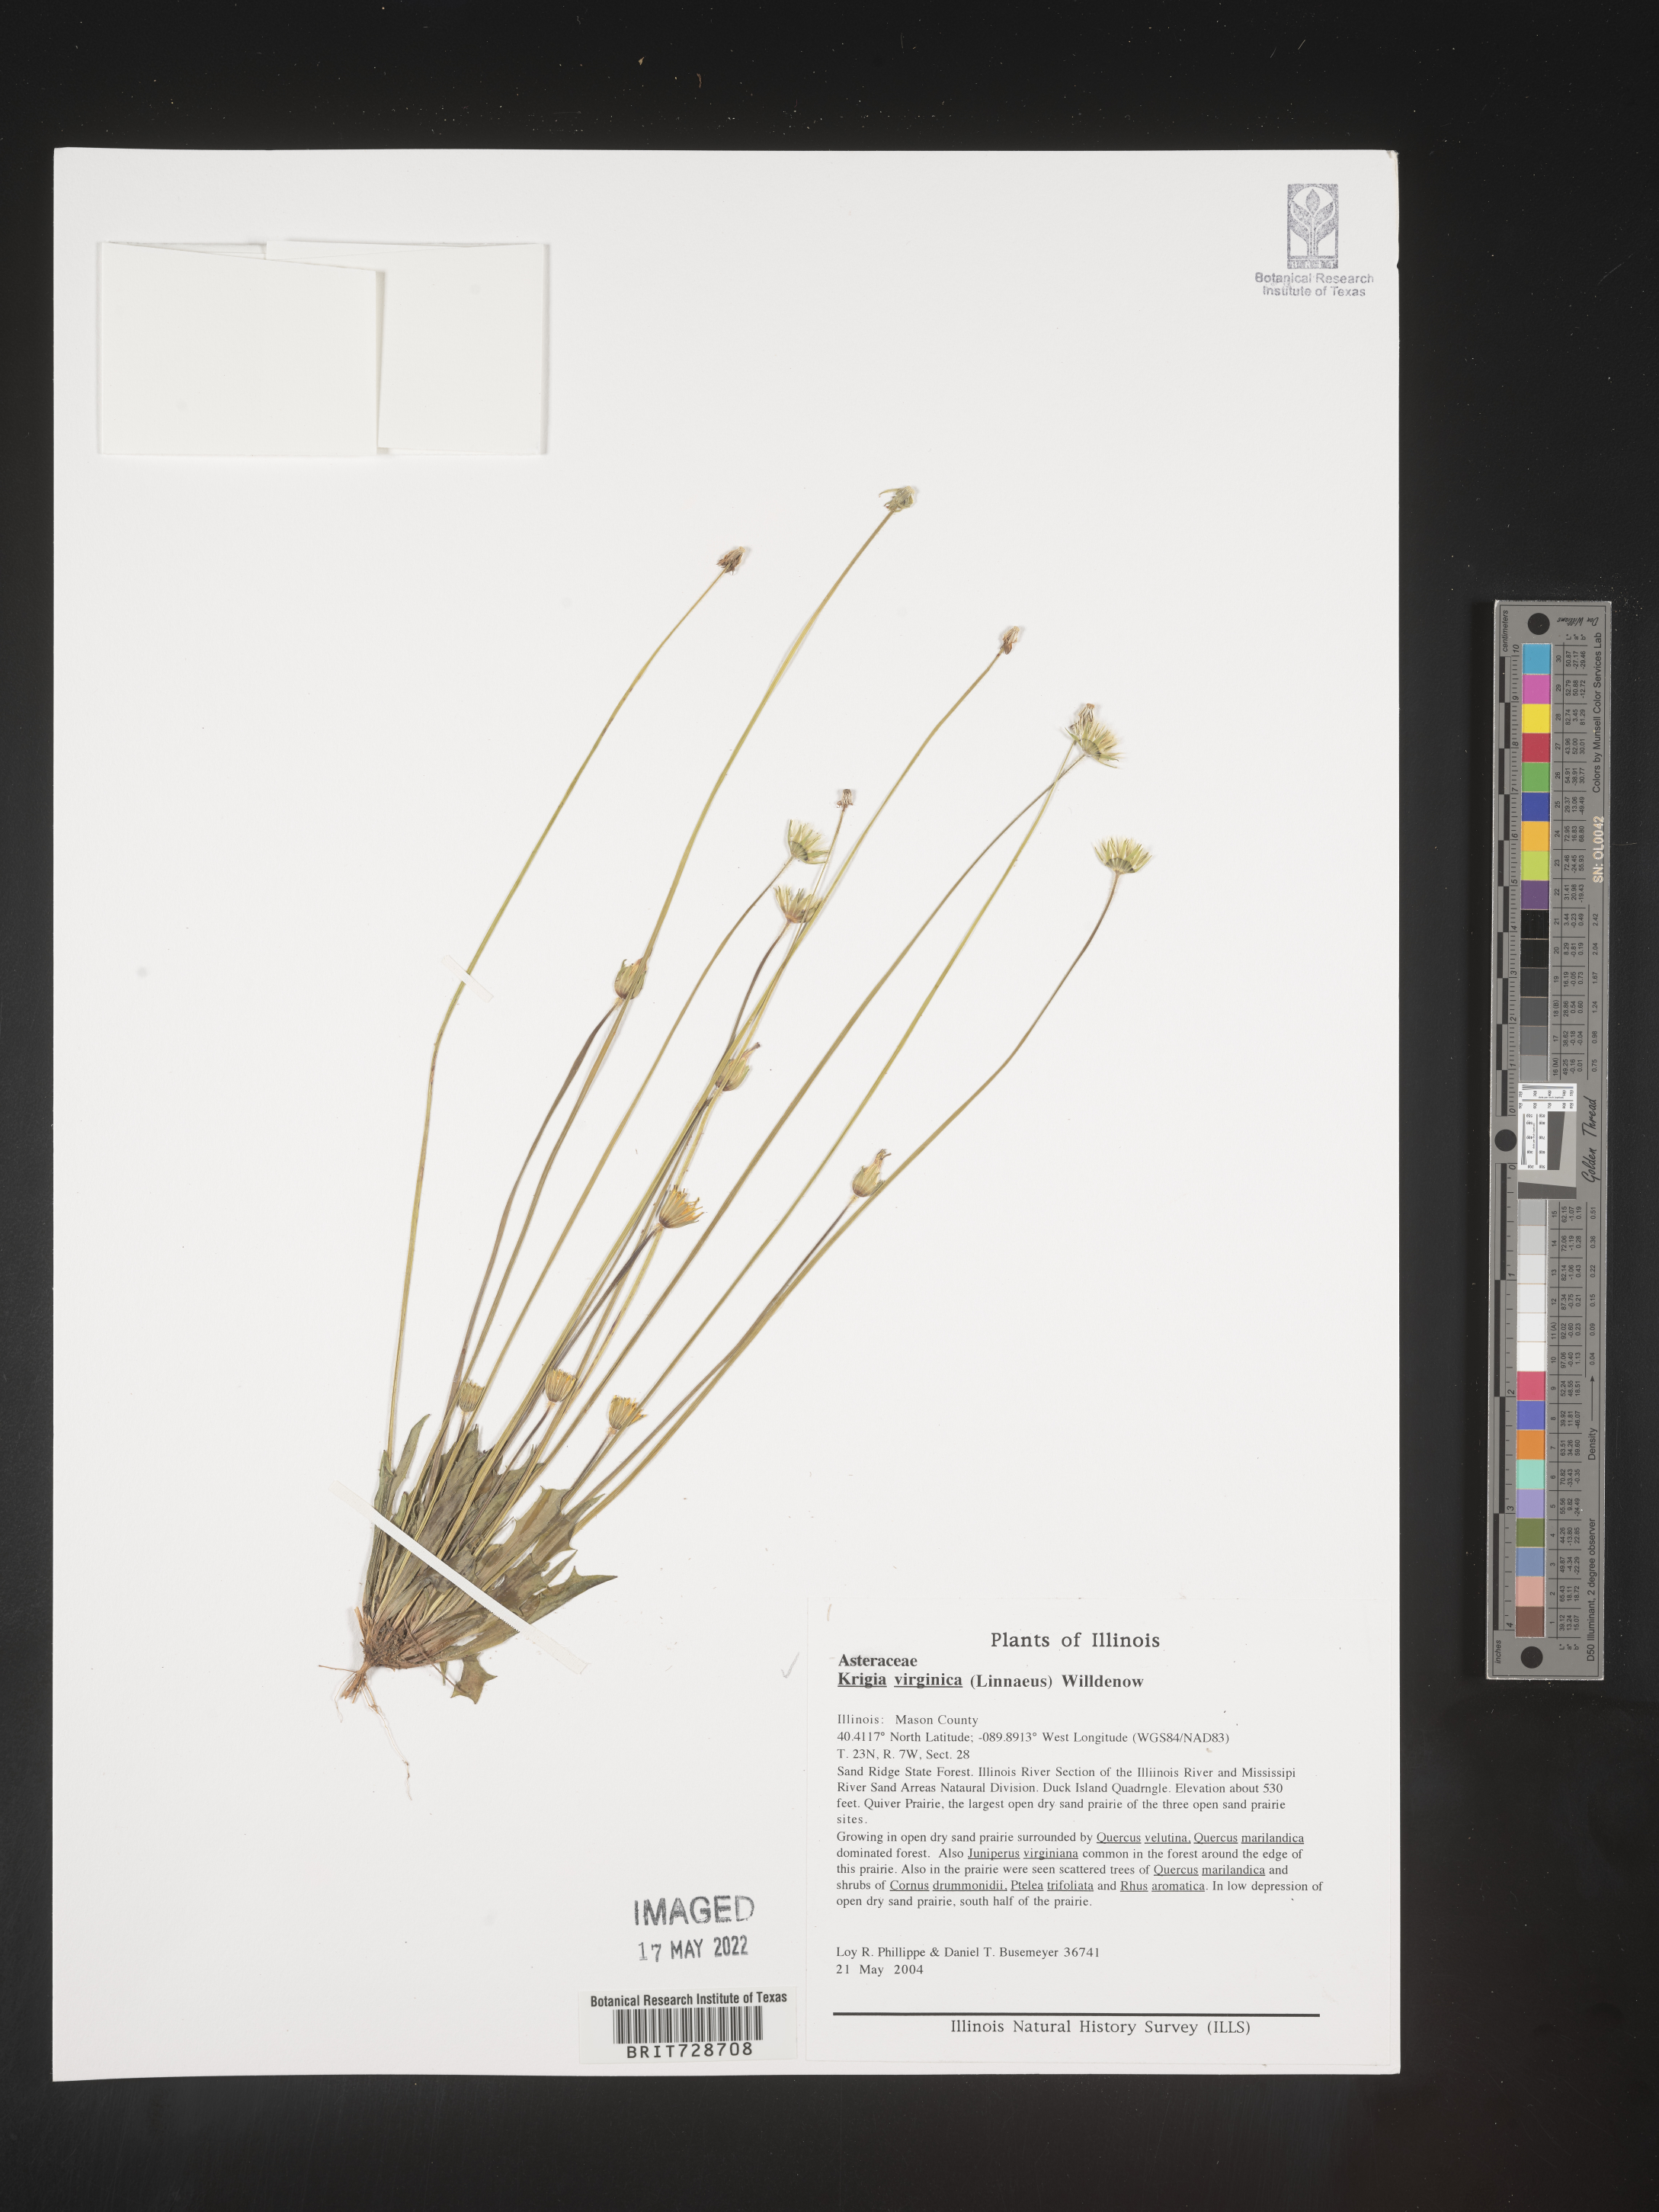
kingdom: Plantae
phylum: Tracheophyta
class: Magnoliopsida
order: Asterales
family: Asteraceae
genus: Krigia
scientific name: Krigia virginica
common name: Virginia dwarf-dandelion
